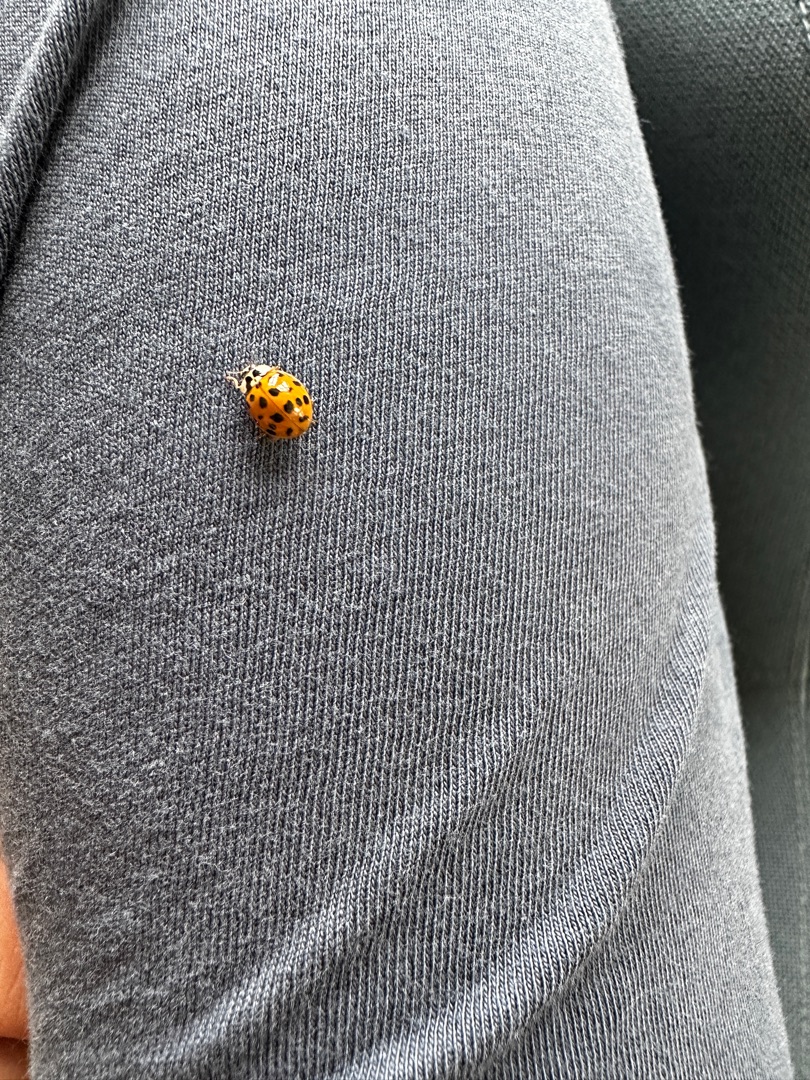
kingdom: Animalia
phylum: Arthropoda
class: Insecta
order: Coleoptera
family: Coccinellidae
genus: Harmonia
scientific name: Harmonia axyridis
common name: Harlekinmariehøne
